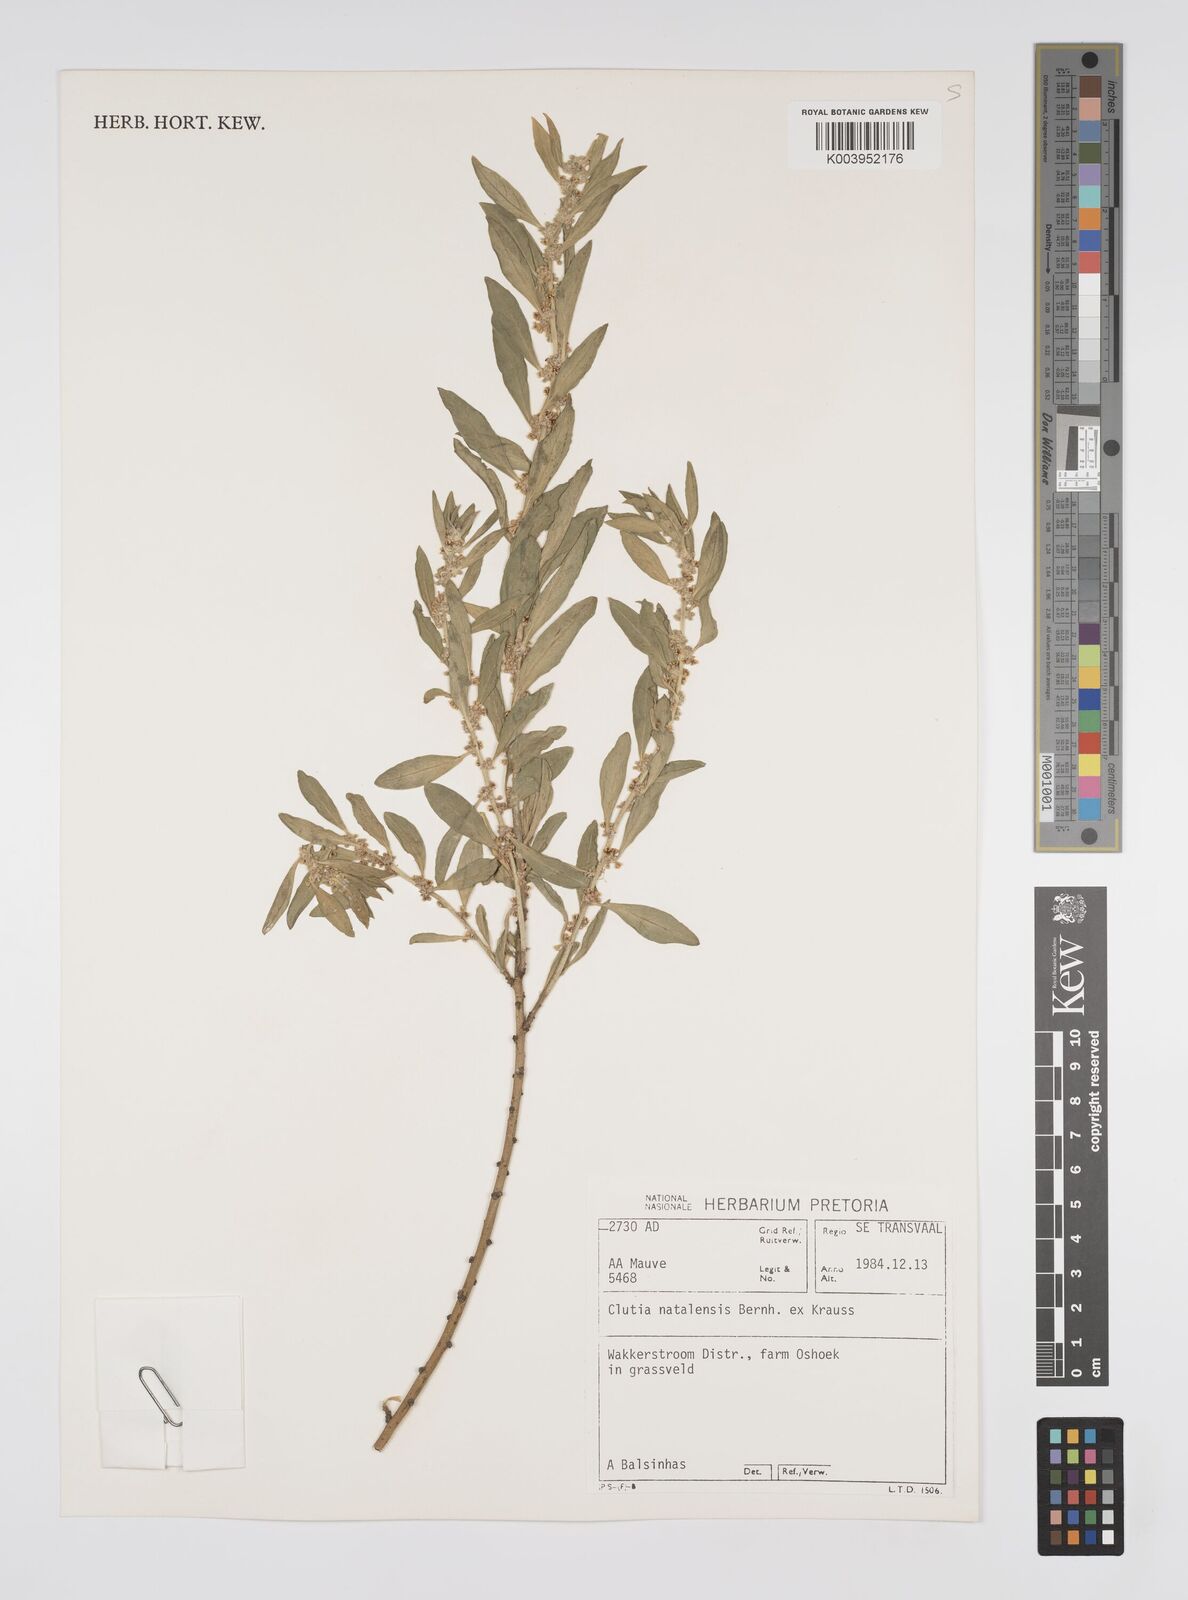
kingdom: Plantae
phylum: Tracheophyta
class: Magnoliopsida
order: Malpighiales
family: Peraceae
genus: Clutia
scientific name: Clutia natalensis
